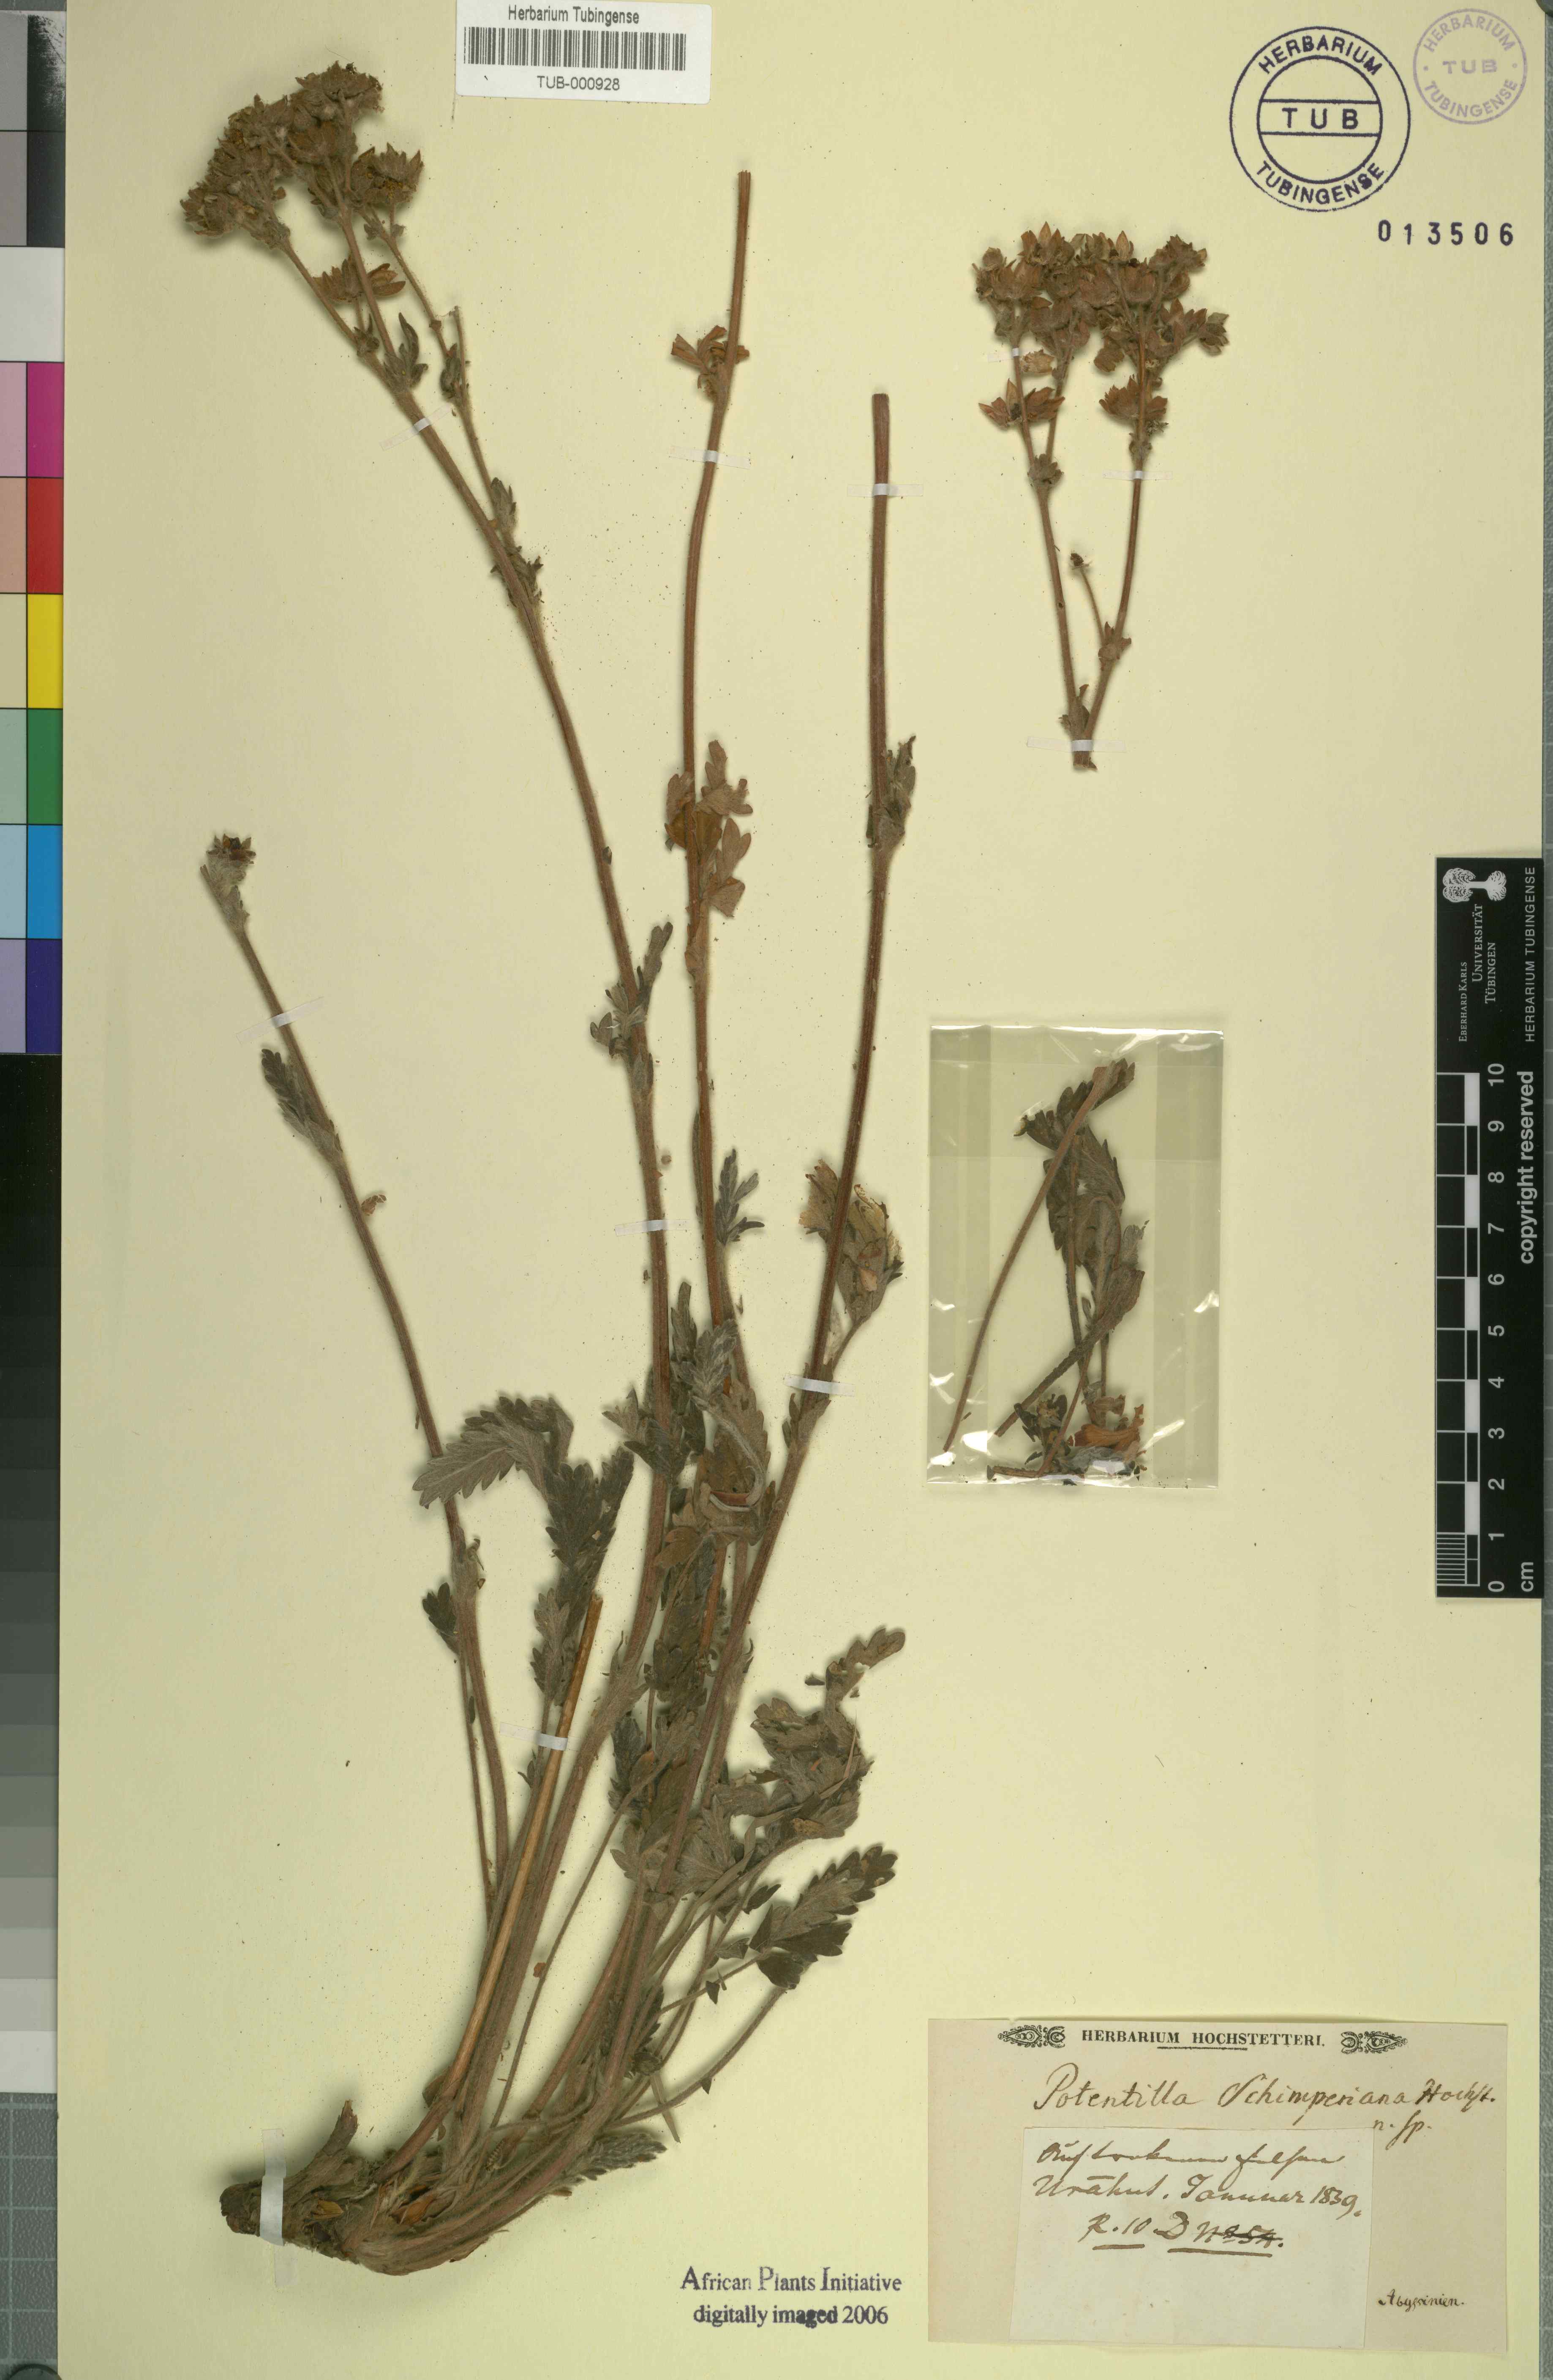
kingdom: Plantae
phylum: Tracheophyta
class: Magnoliopsida
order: Rosales
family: Rosaceae
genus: Potentilla
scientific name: Potentilla
